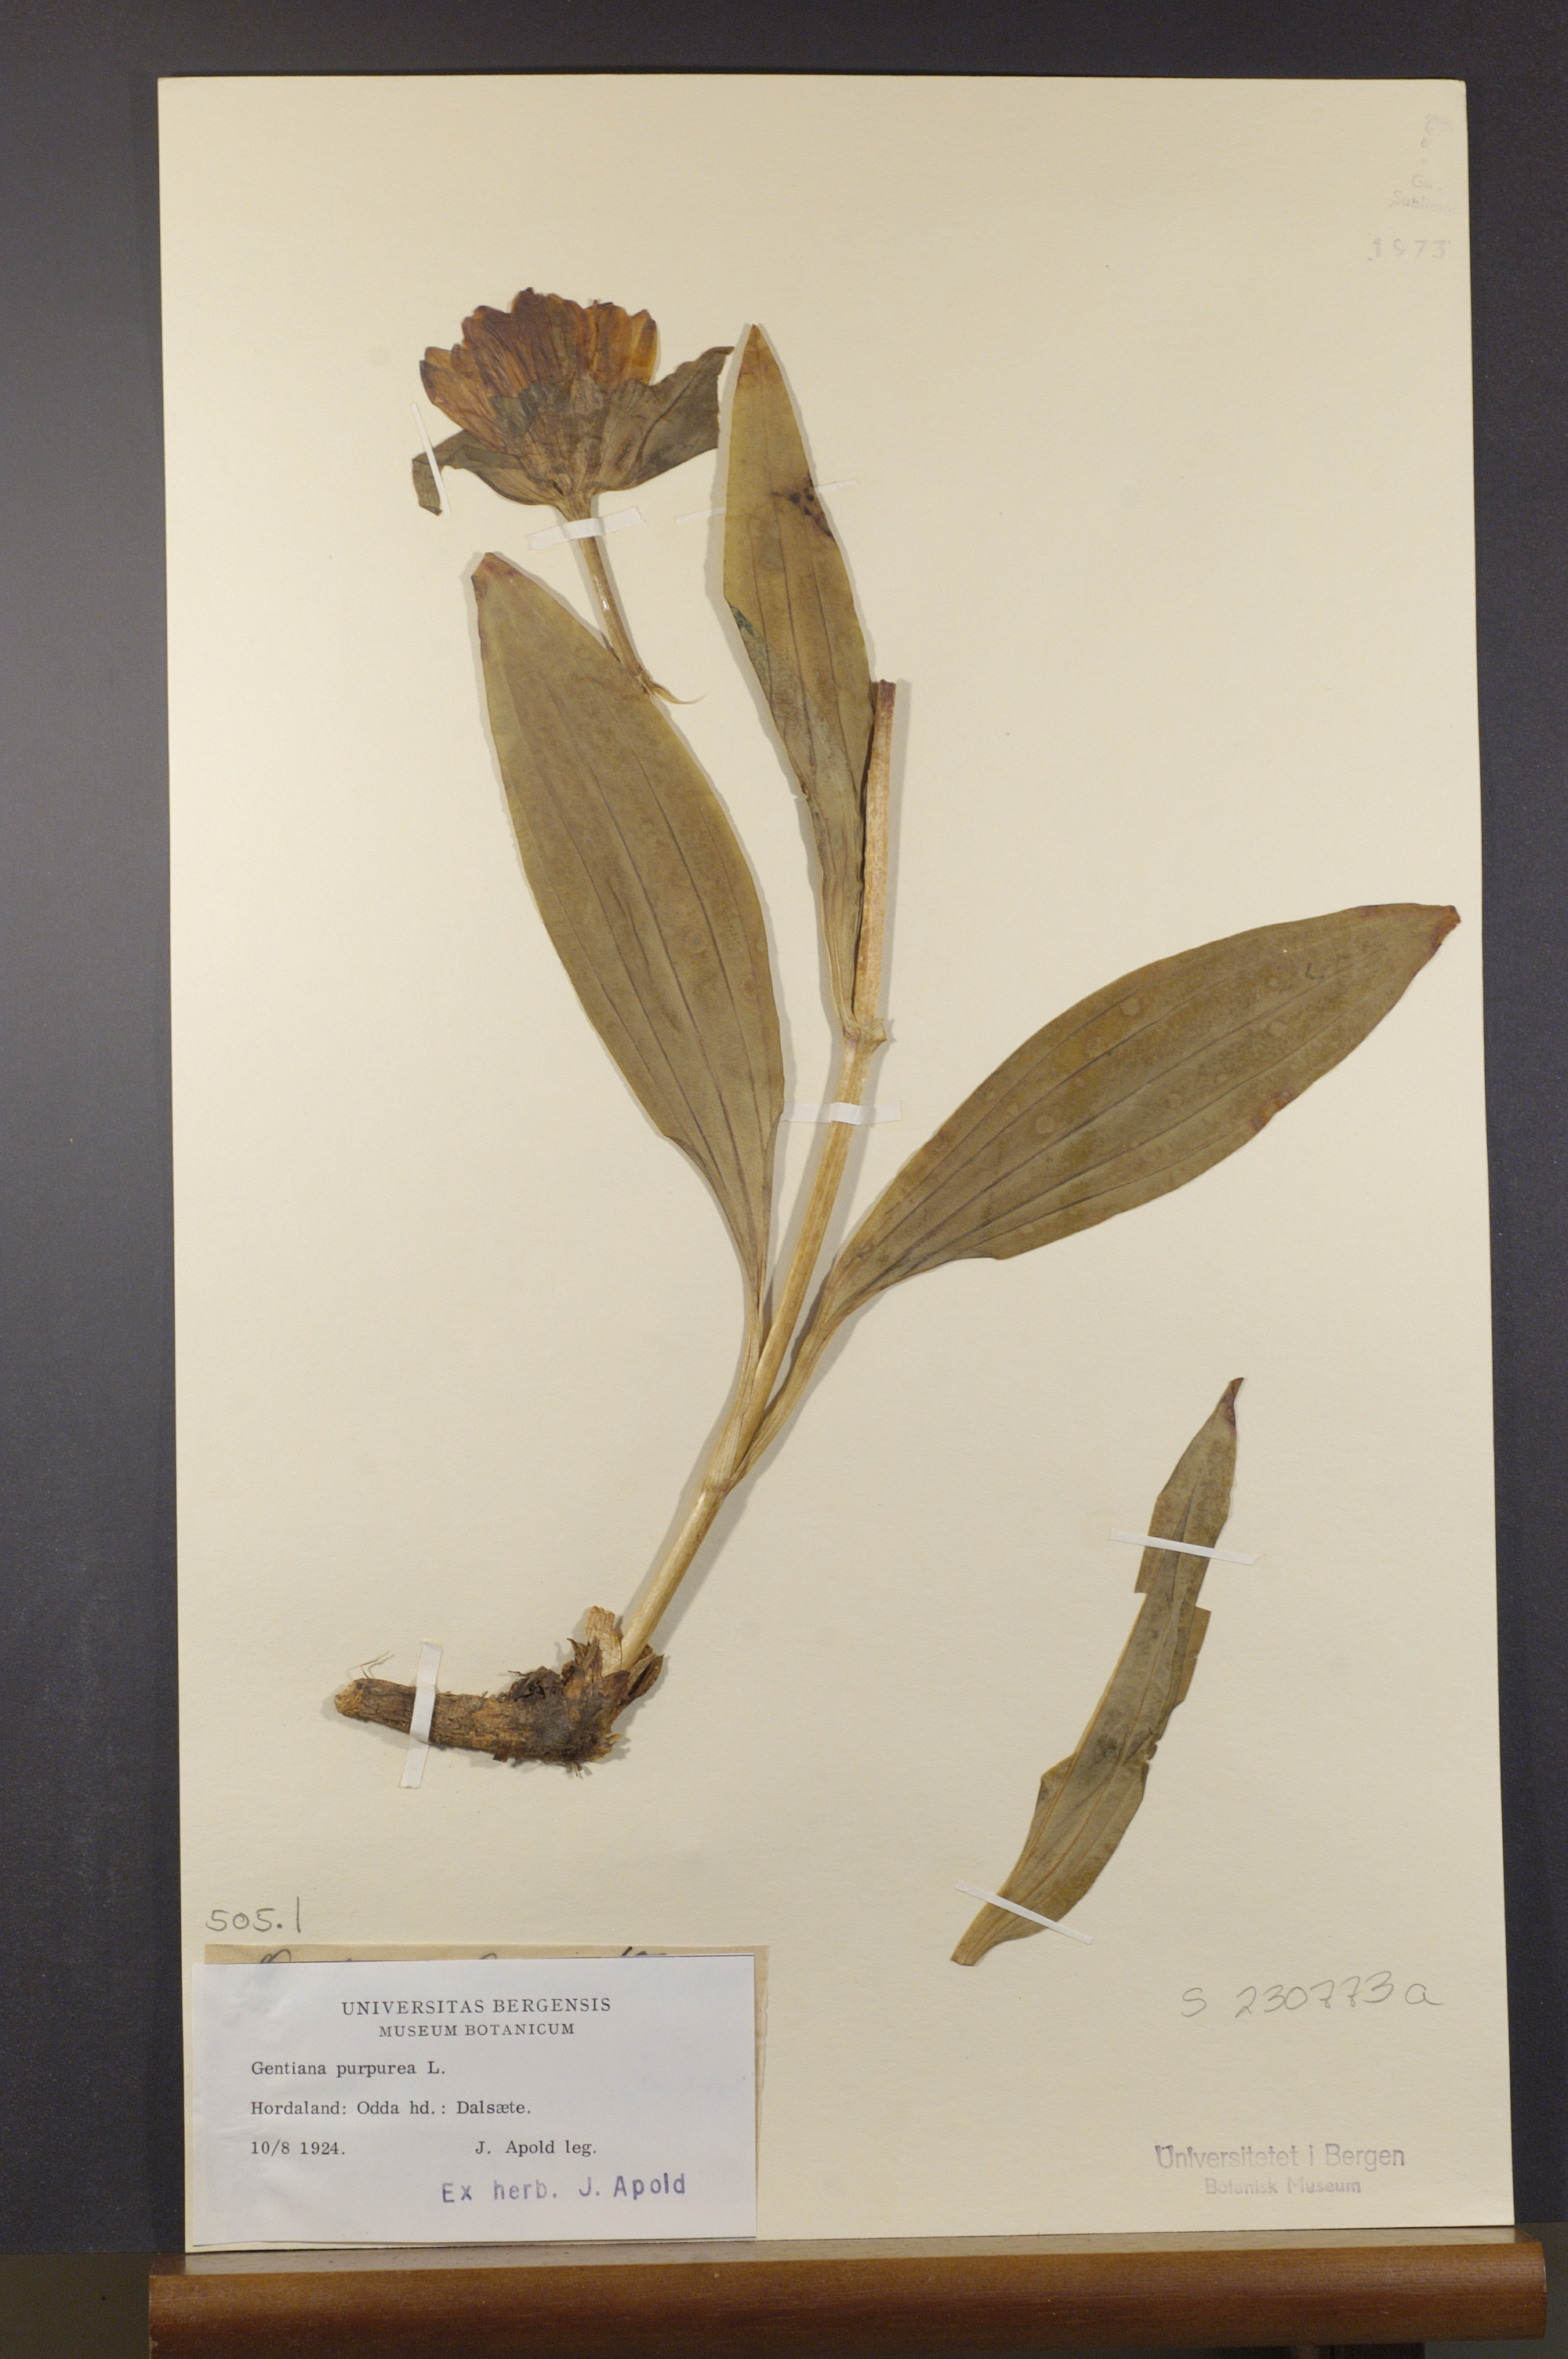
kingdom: Plantae
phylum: Tracheophyta
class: Magnoliopsida
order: Gentianales
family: Gentianaceae
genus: Gentiana
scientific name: Gentiana purpurea
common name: Purple gentian
